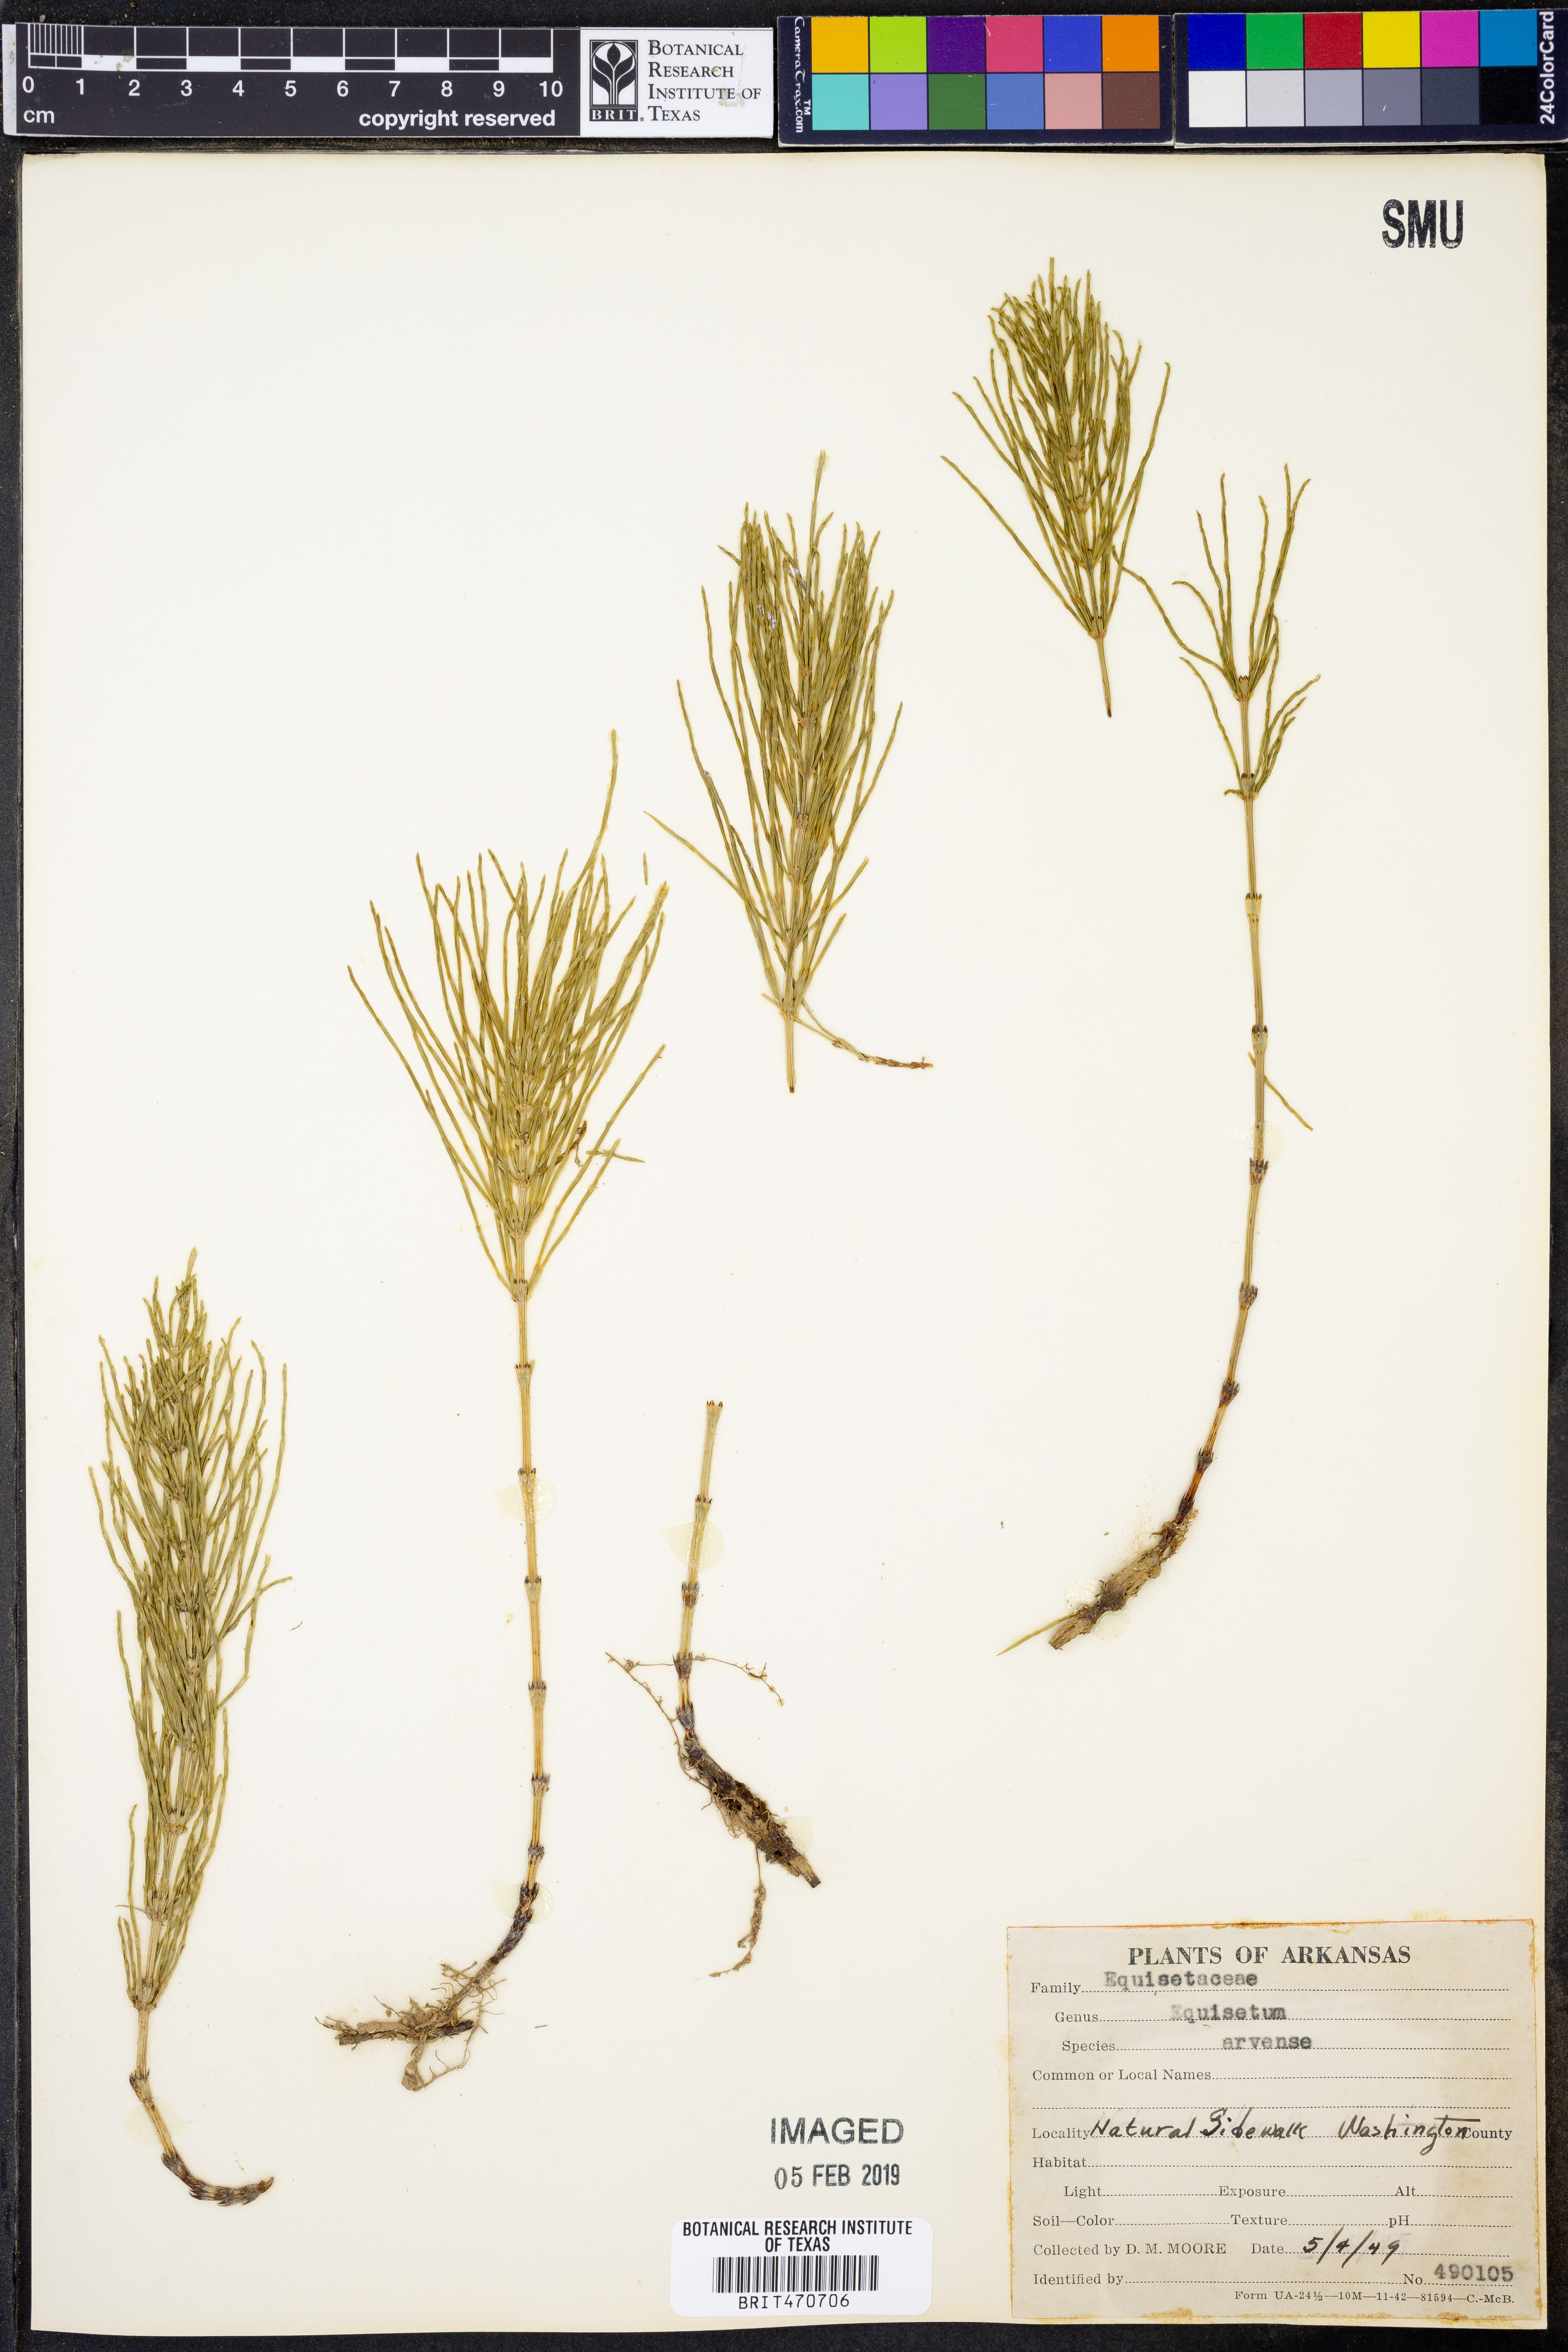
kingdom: Plantae
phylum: Tracheophyta
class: Polypodiopsida
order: Equisetales
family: Equisetaceae
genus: Equisetum
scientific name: Equisetum arvense
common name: Field horsetail
